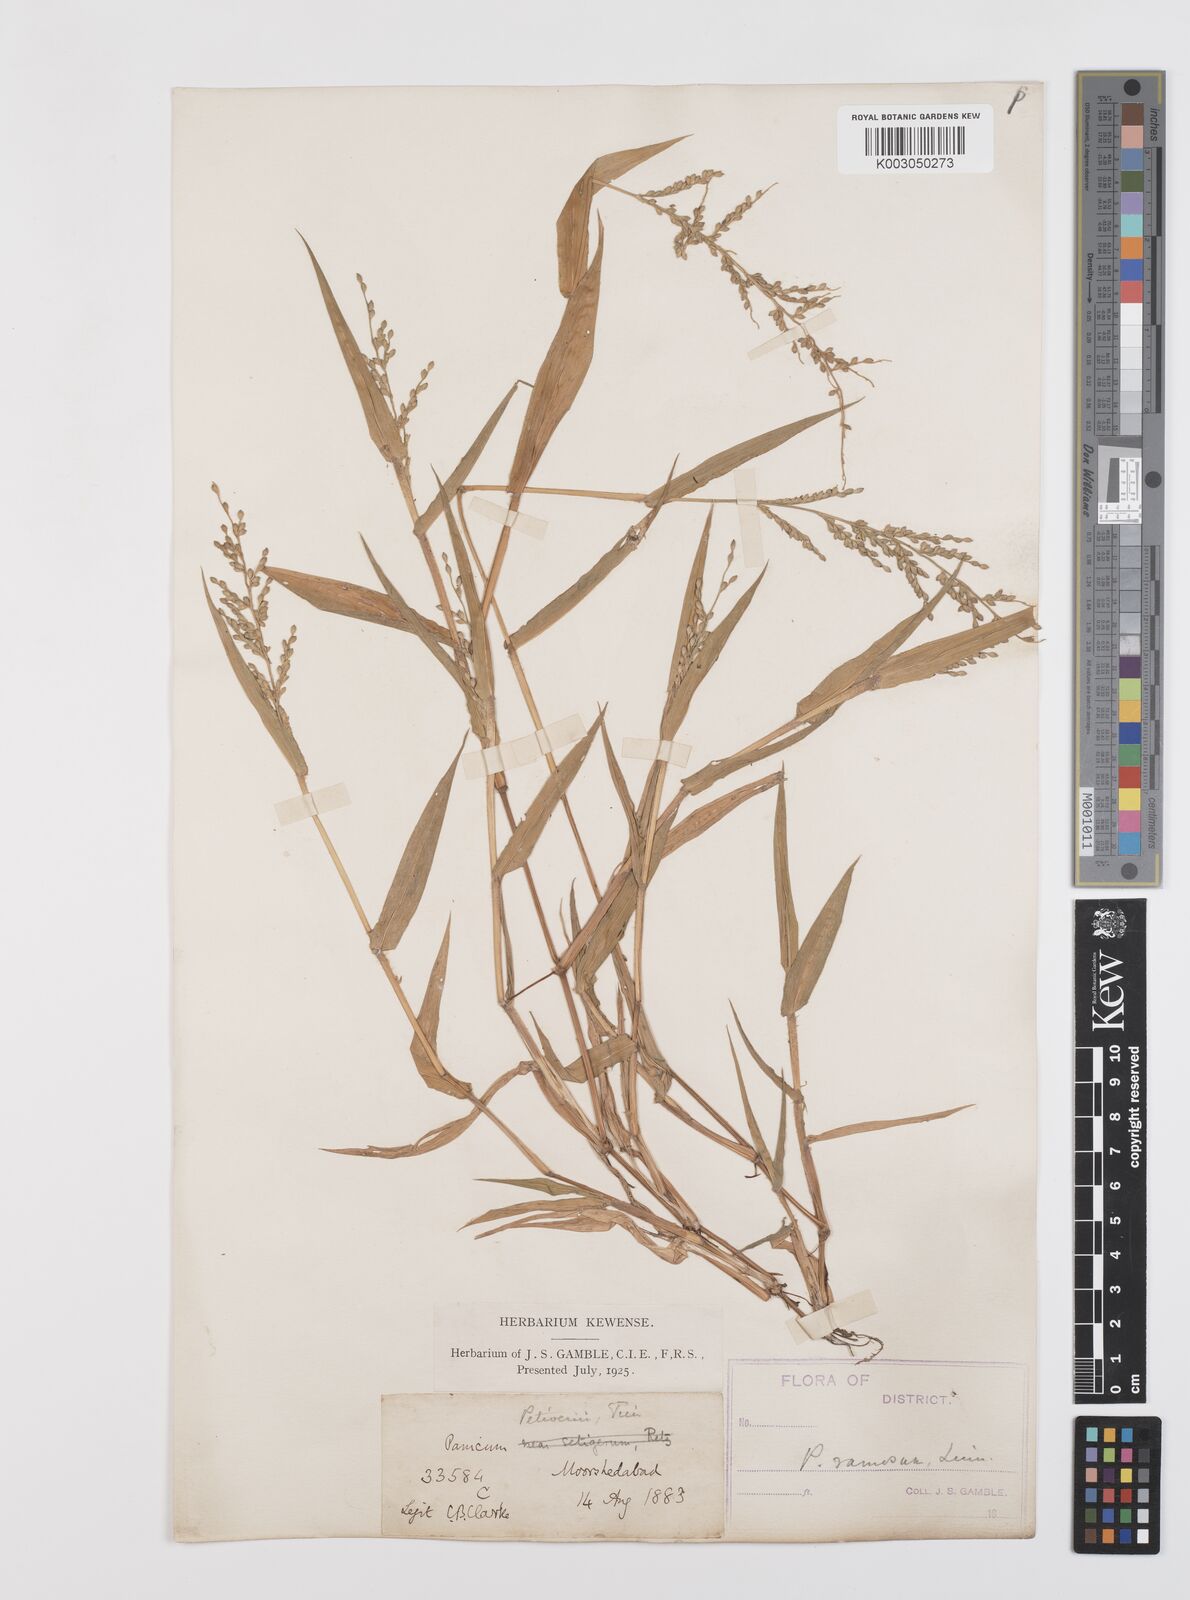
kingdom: Plantae
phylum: Tracheophyta
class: Liliopsida
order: Poales
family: Poaceae
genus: Urochloa
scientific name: Urochloa ramosa
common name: Browntop millet
